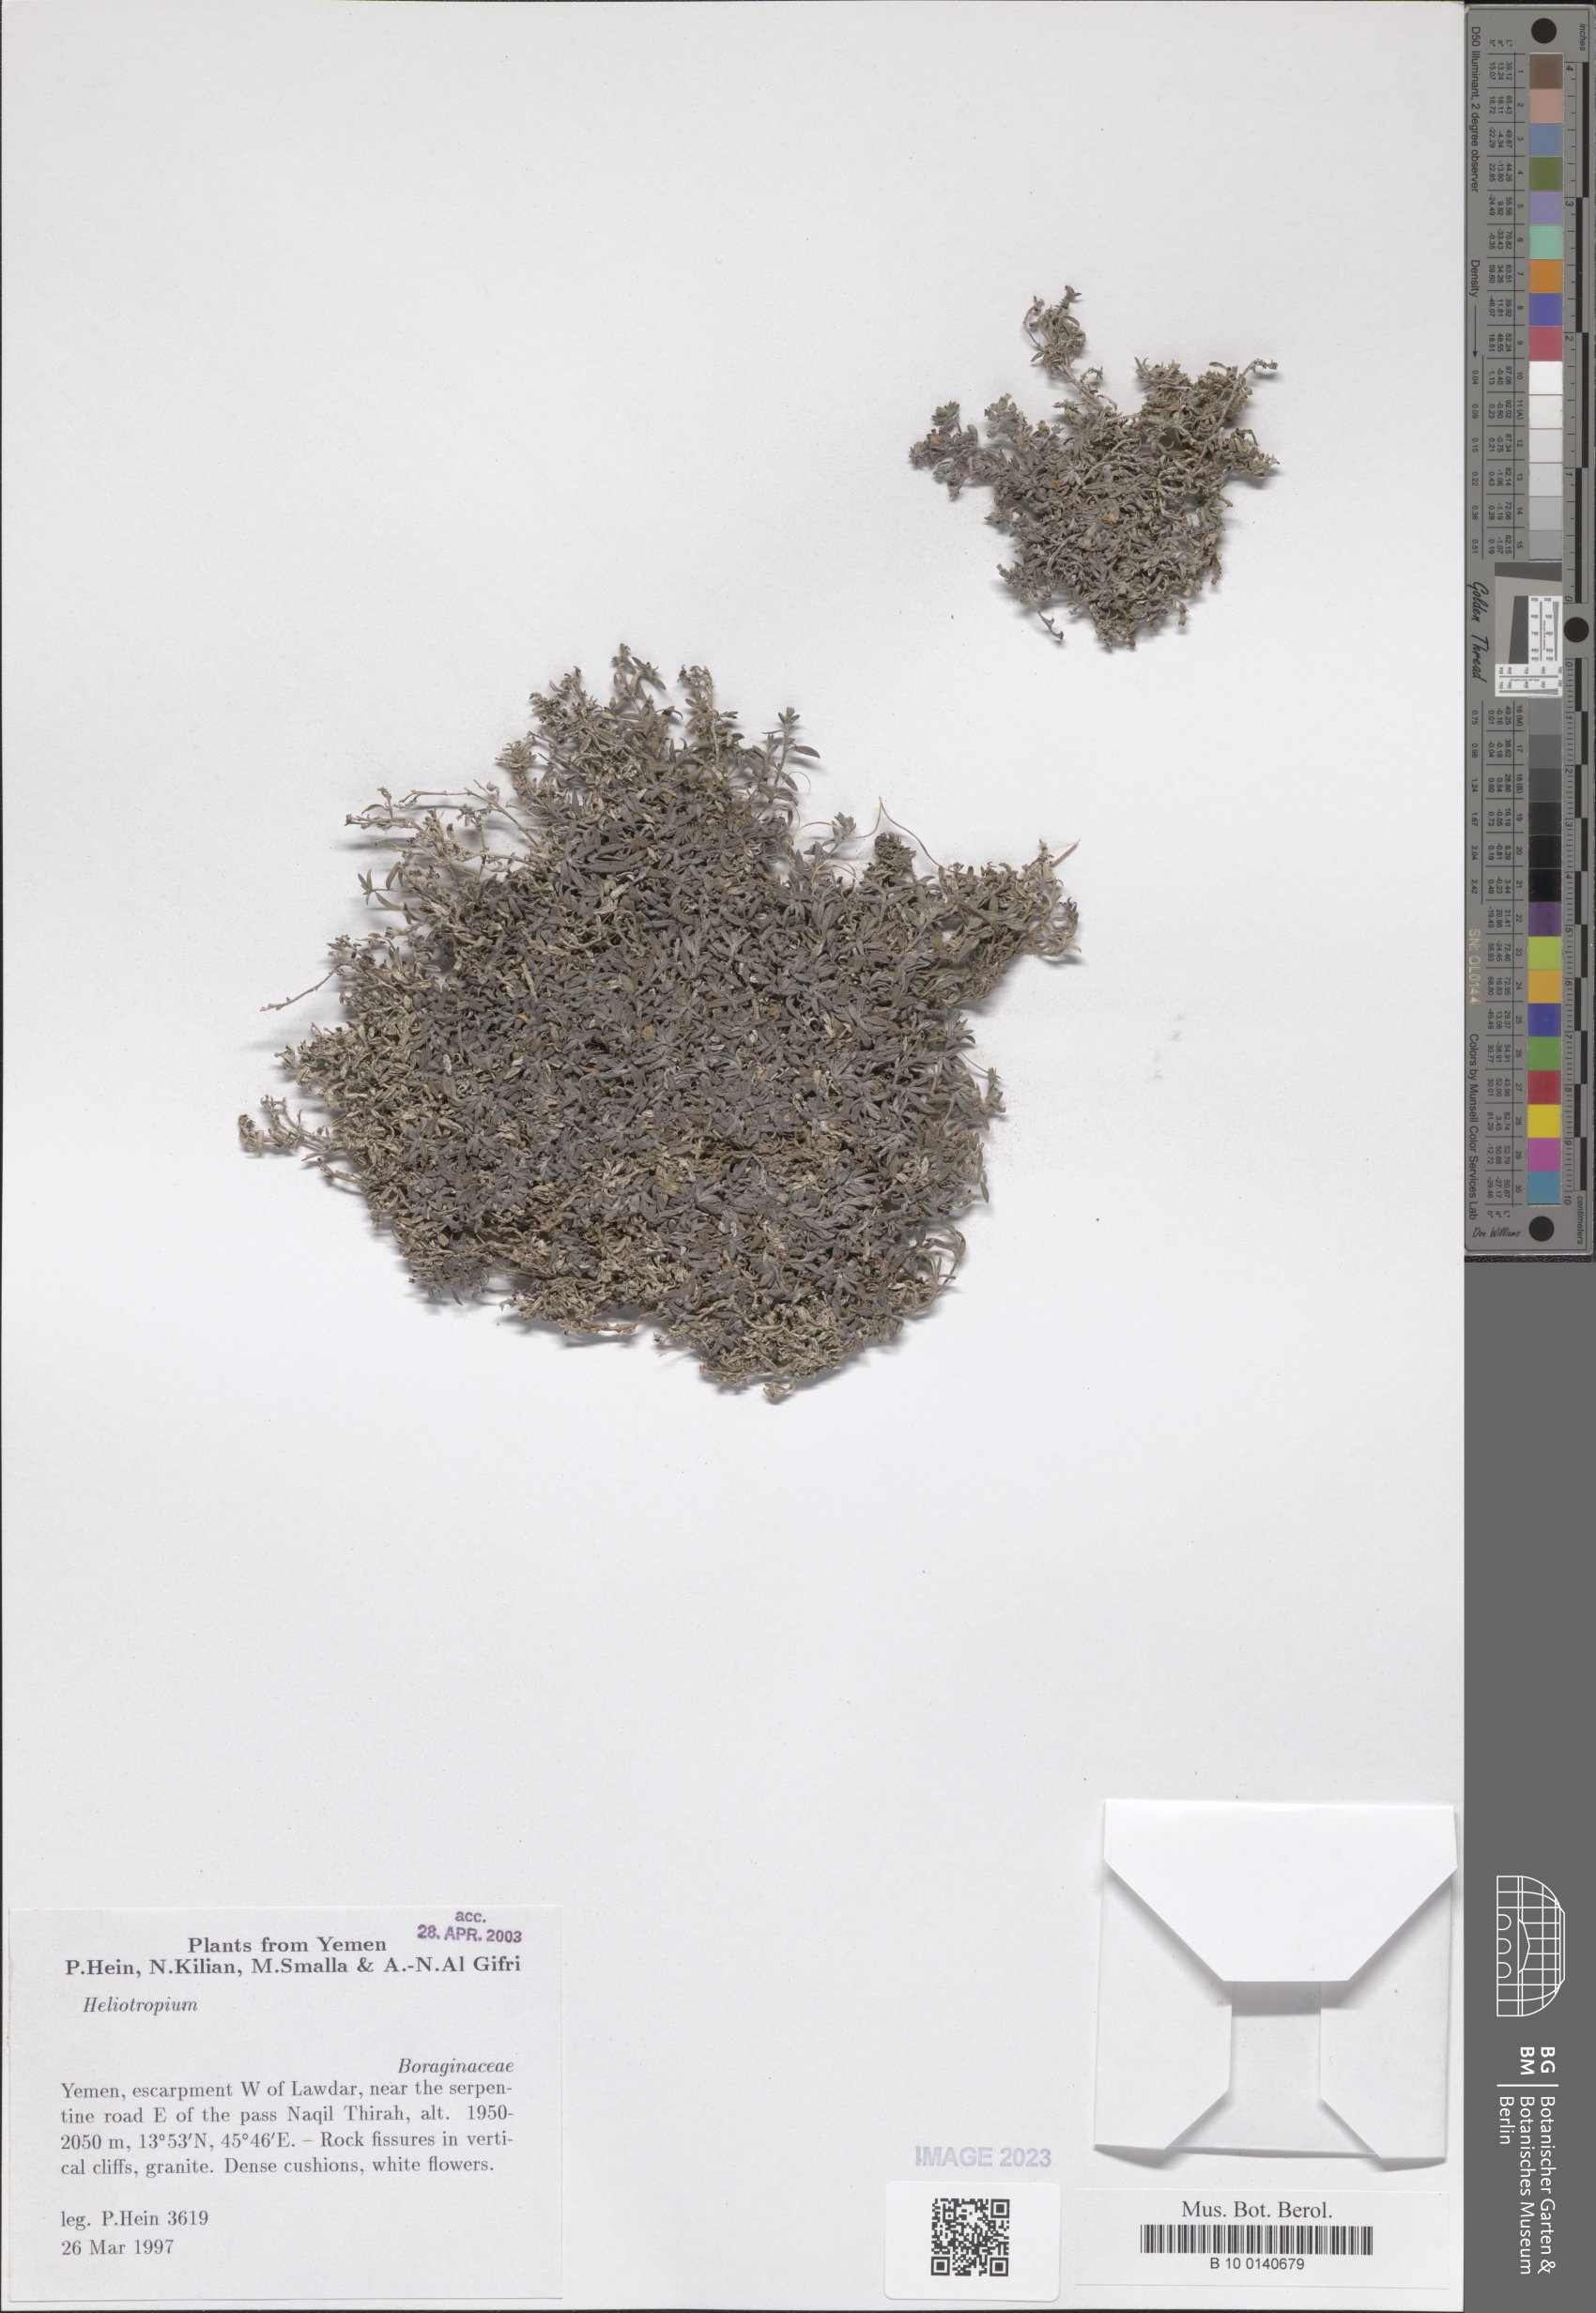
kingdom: Plantae
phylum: Tracheophyta
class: Magnoliopsida
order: Boraginales
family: Heliotropiaceae
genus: Heliotropium
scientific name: Heliotropium
